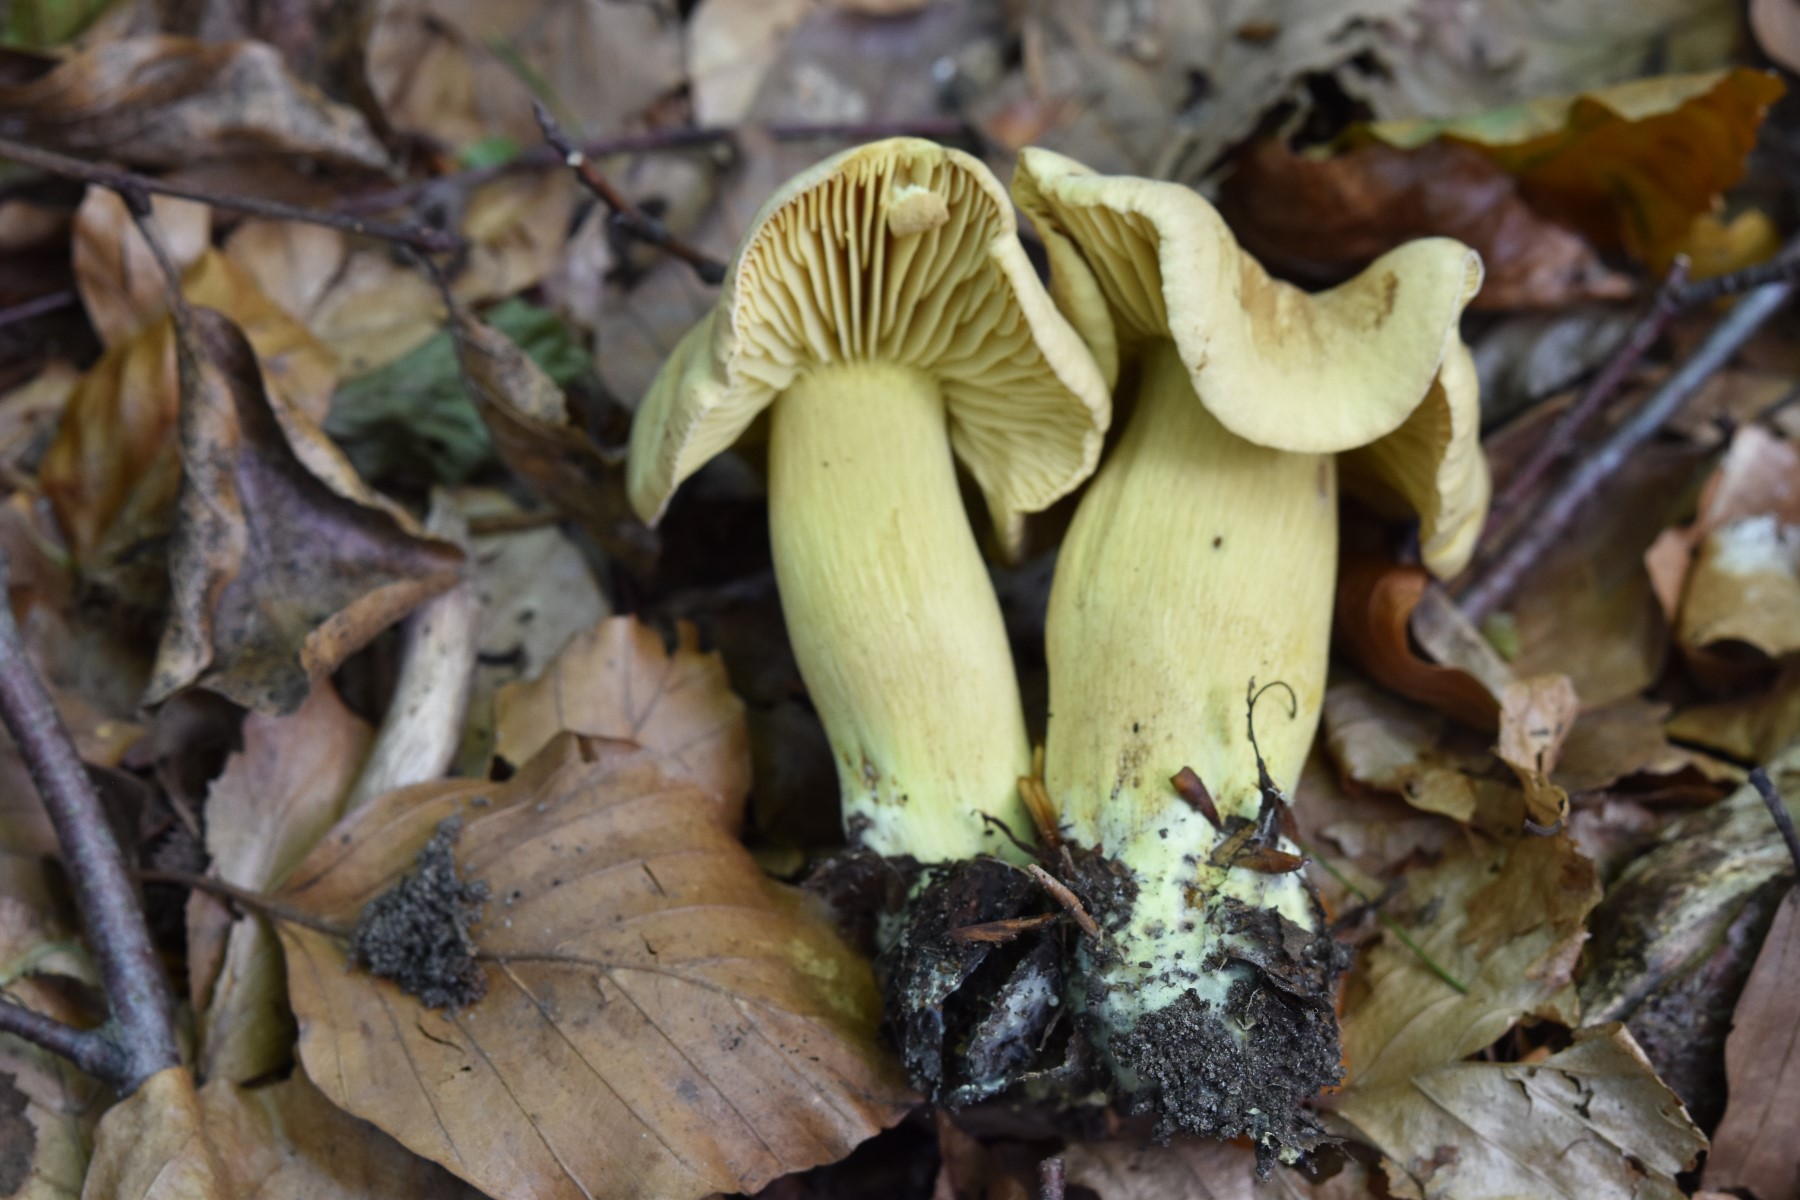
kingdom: Fungi
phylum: Basidiomycota
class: Agaricomycetes
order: Agaricales
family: Tricholomataceae
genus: Tricholoma
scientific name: Tricholoma sulphureum
